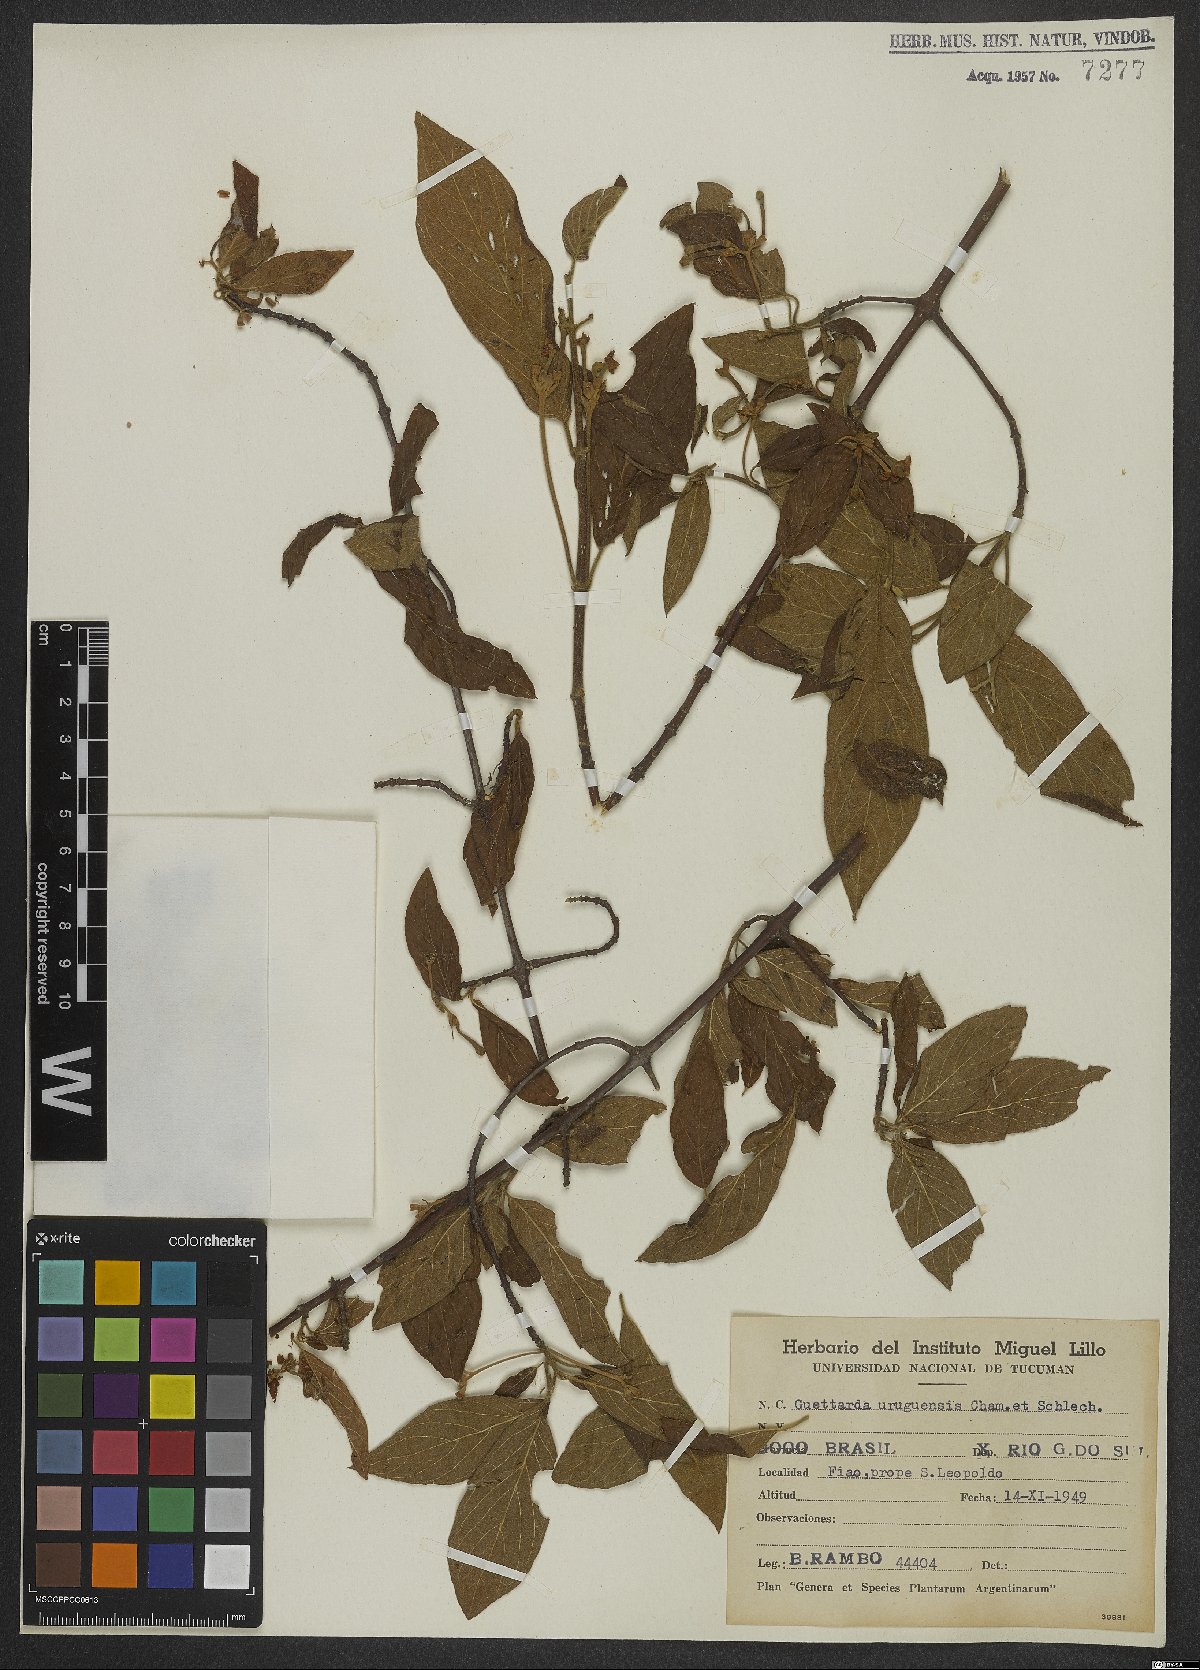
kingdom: Plantae
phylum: Tracheophyta
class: Magnoliopsida
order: Gentianales
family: Rubiaceae
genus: Guettarda
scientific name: Guettarda uruguensis
